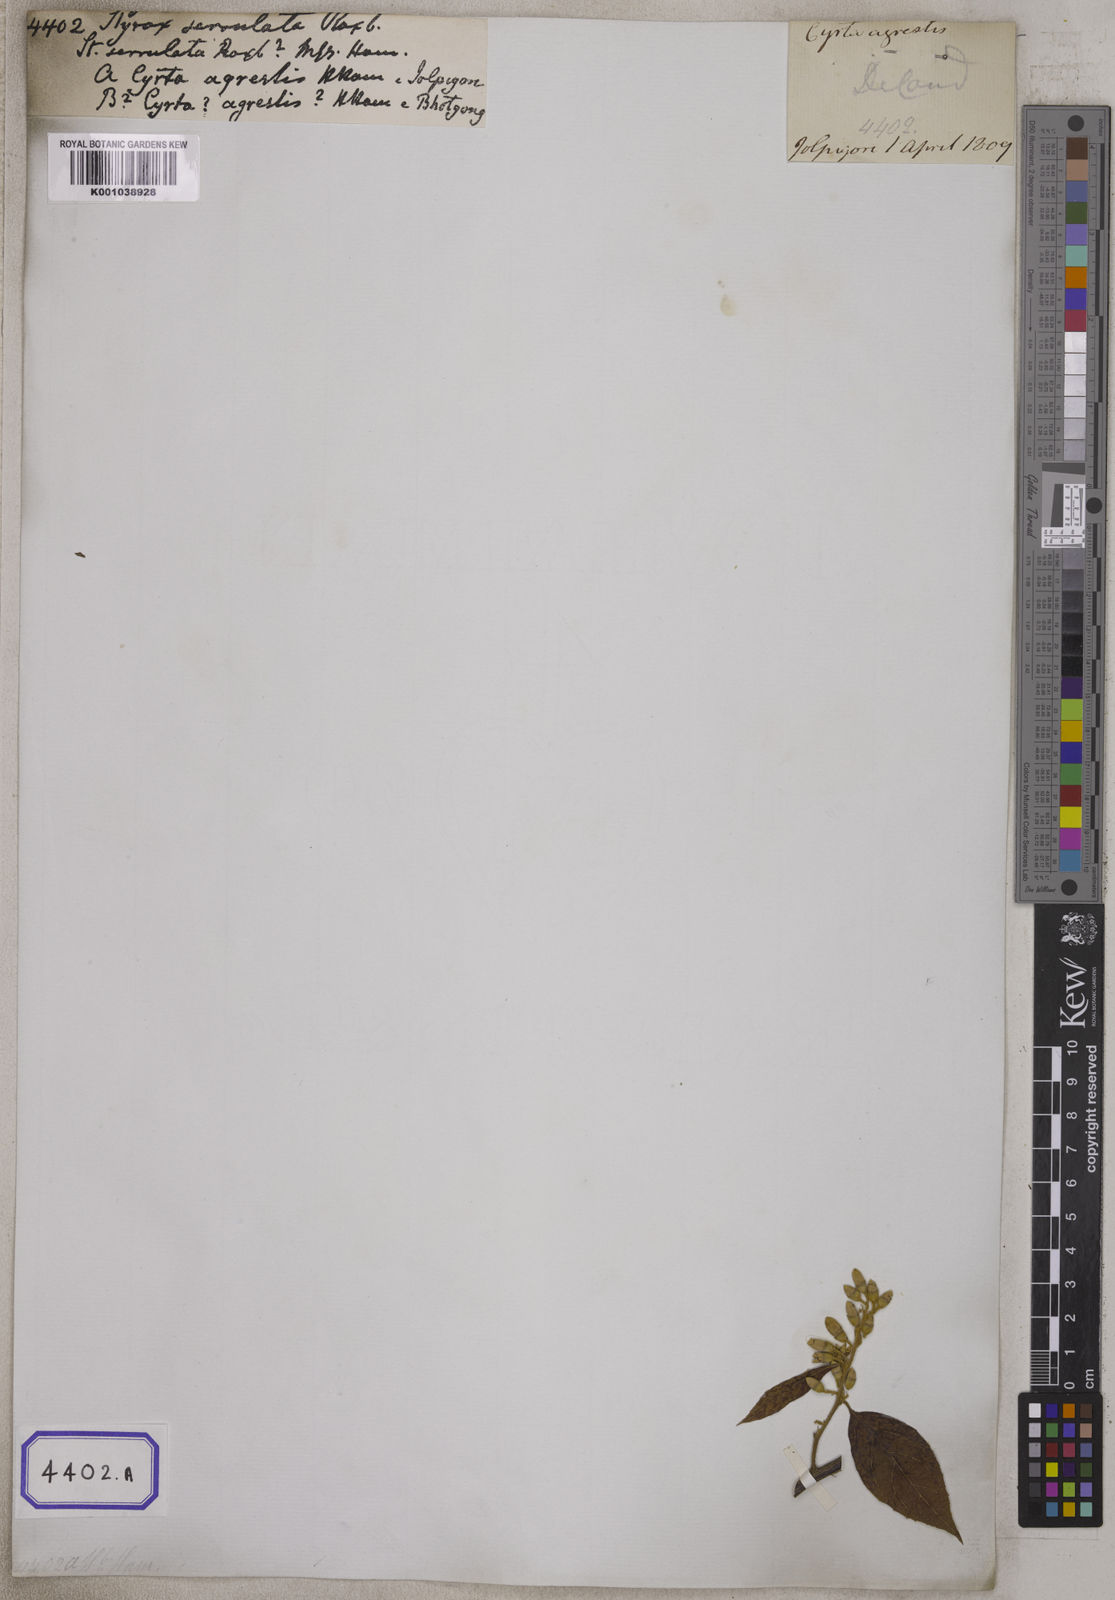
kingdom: Plantae
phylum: Tracheophyta
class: Magnoliopsida
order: Ericales
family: Styracaceae
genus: Styrax
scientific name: Styrax serrulatus
